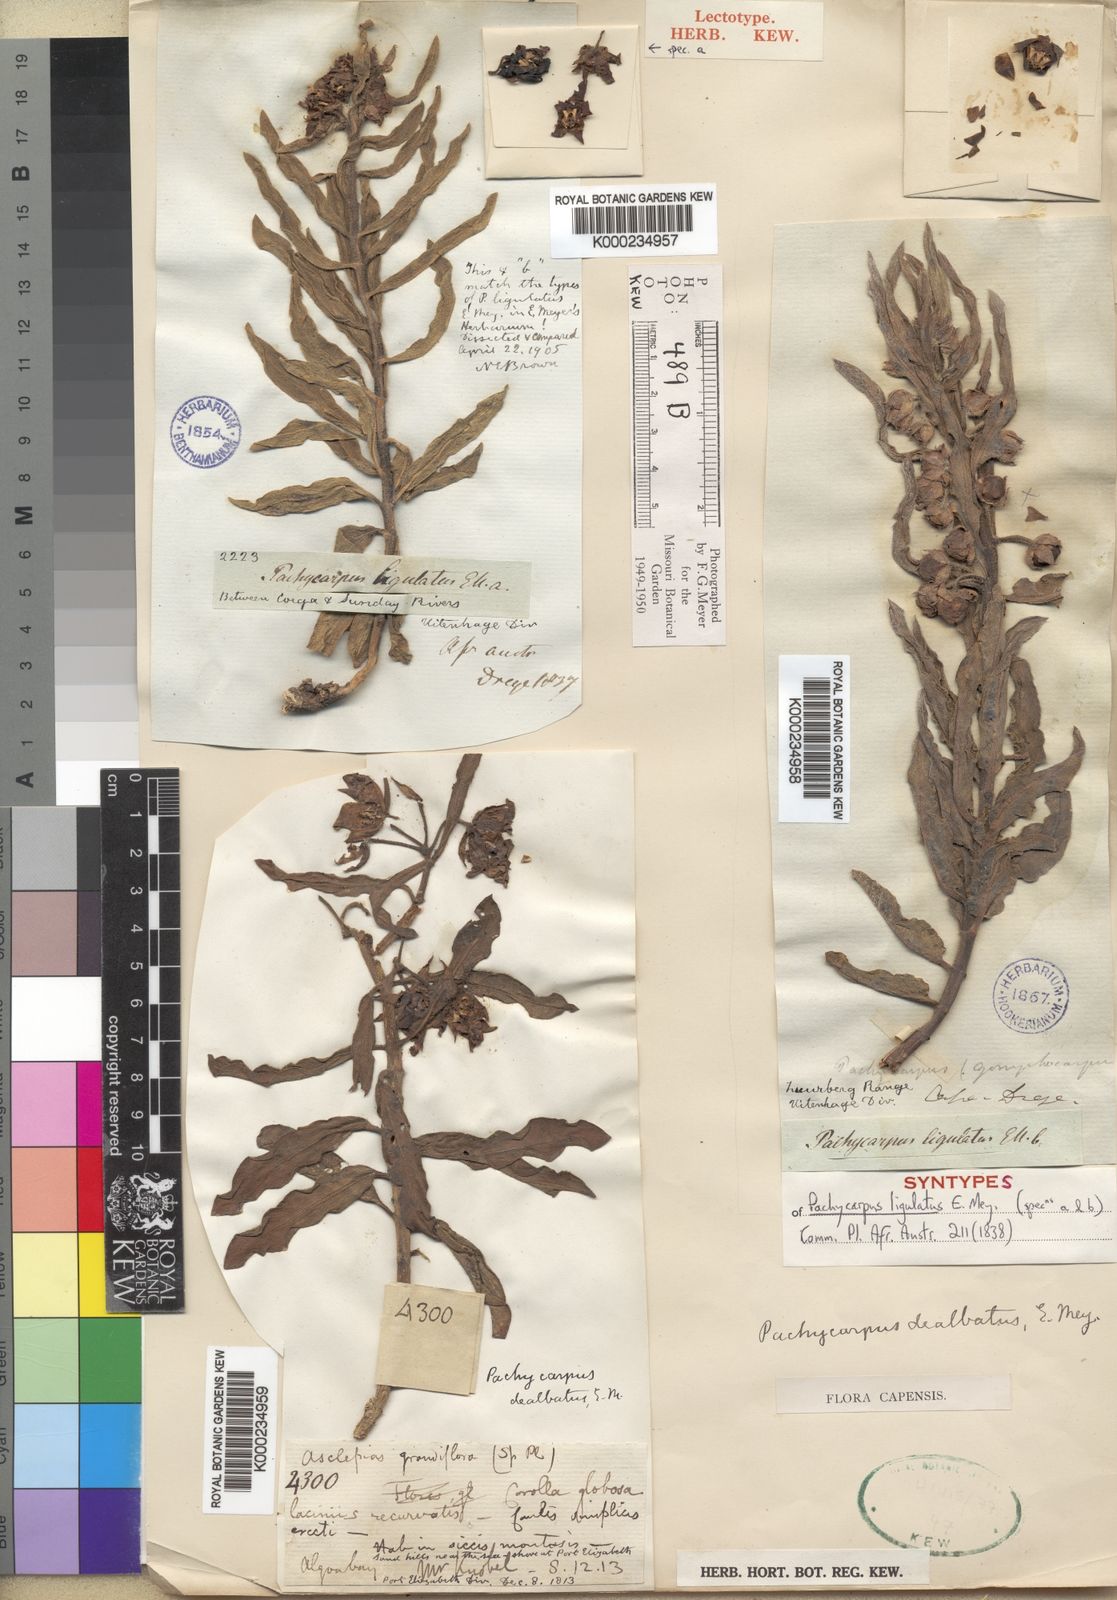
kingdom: Plantae
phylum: Tracheophyta
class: Magnoliopsida
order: Gentianales
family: Apocynaceae
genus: Pachycarpus
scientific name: Pachycarpus dealbatus
